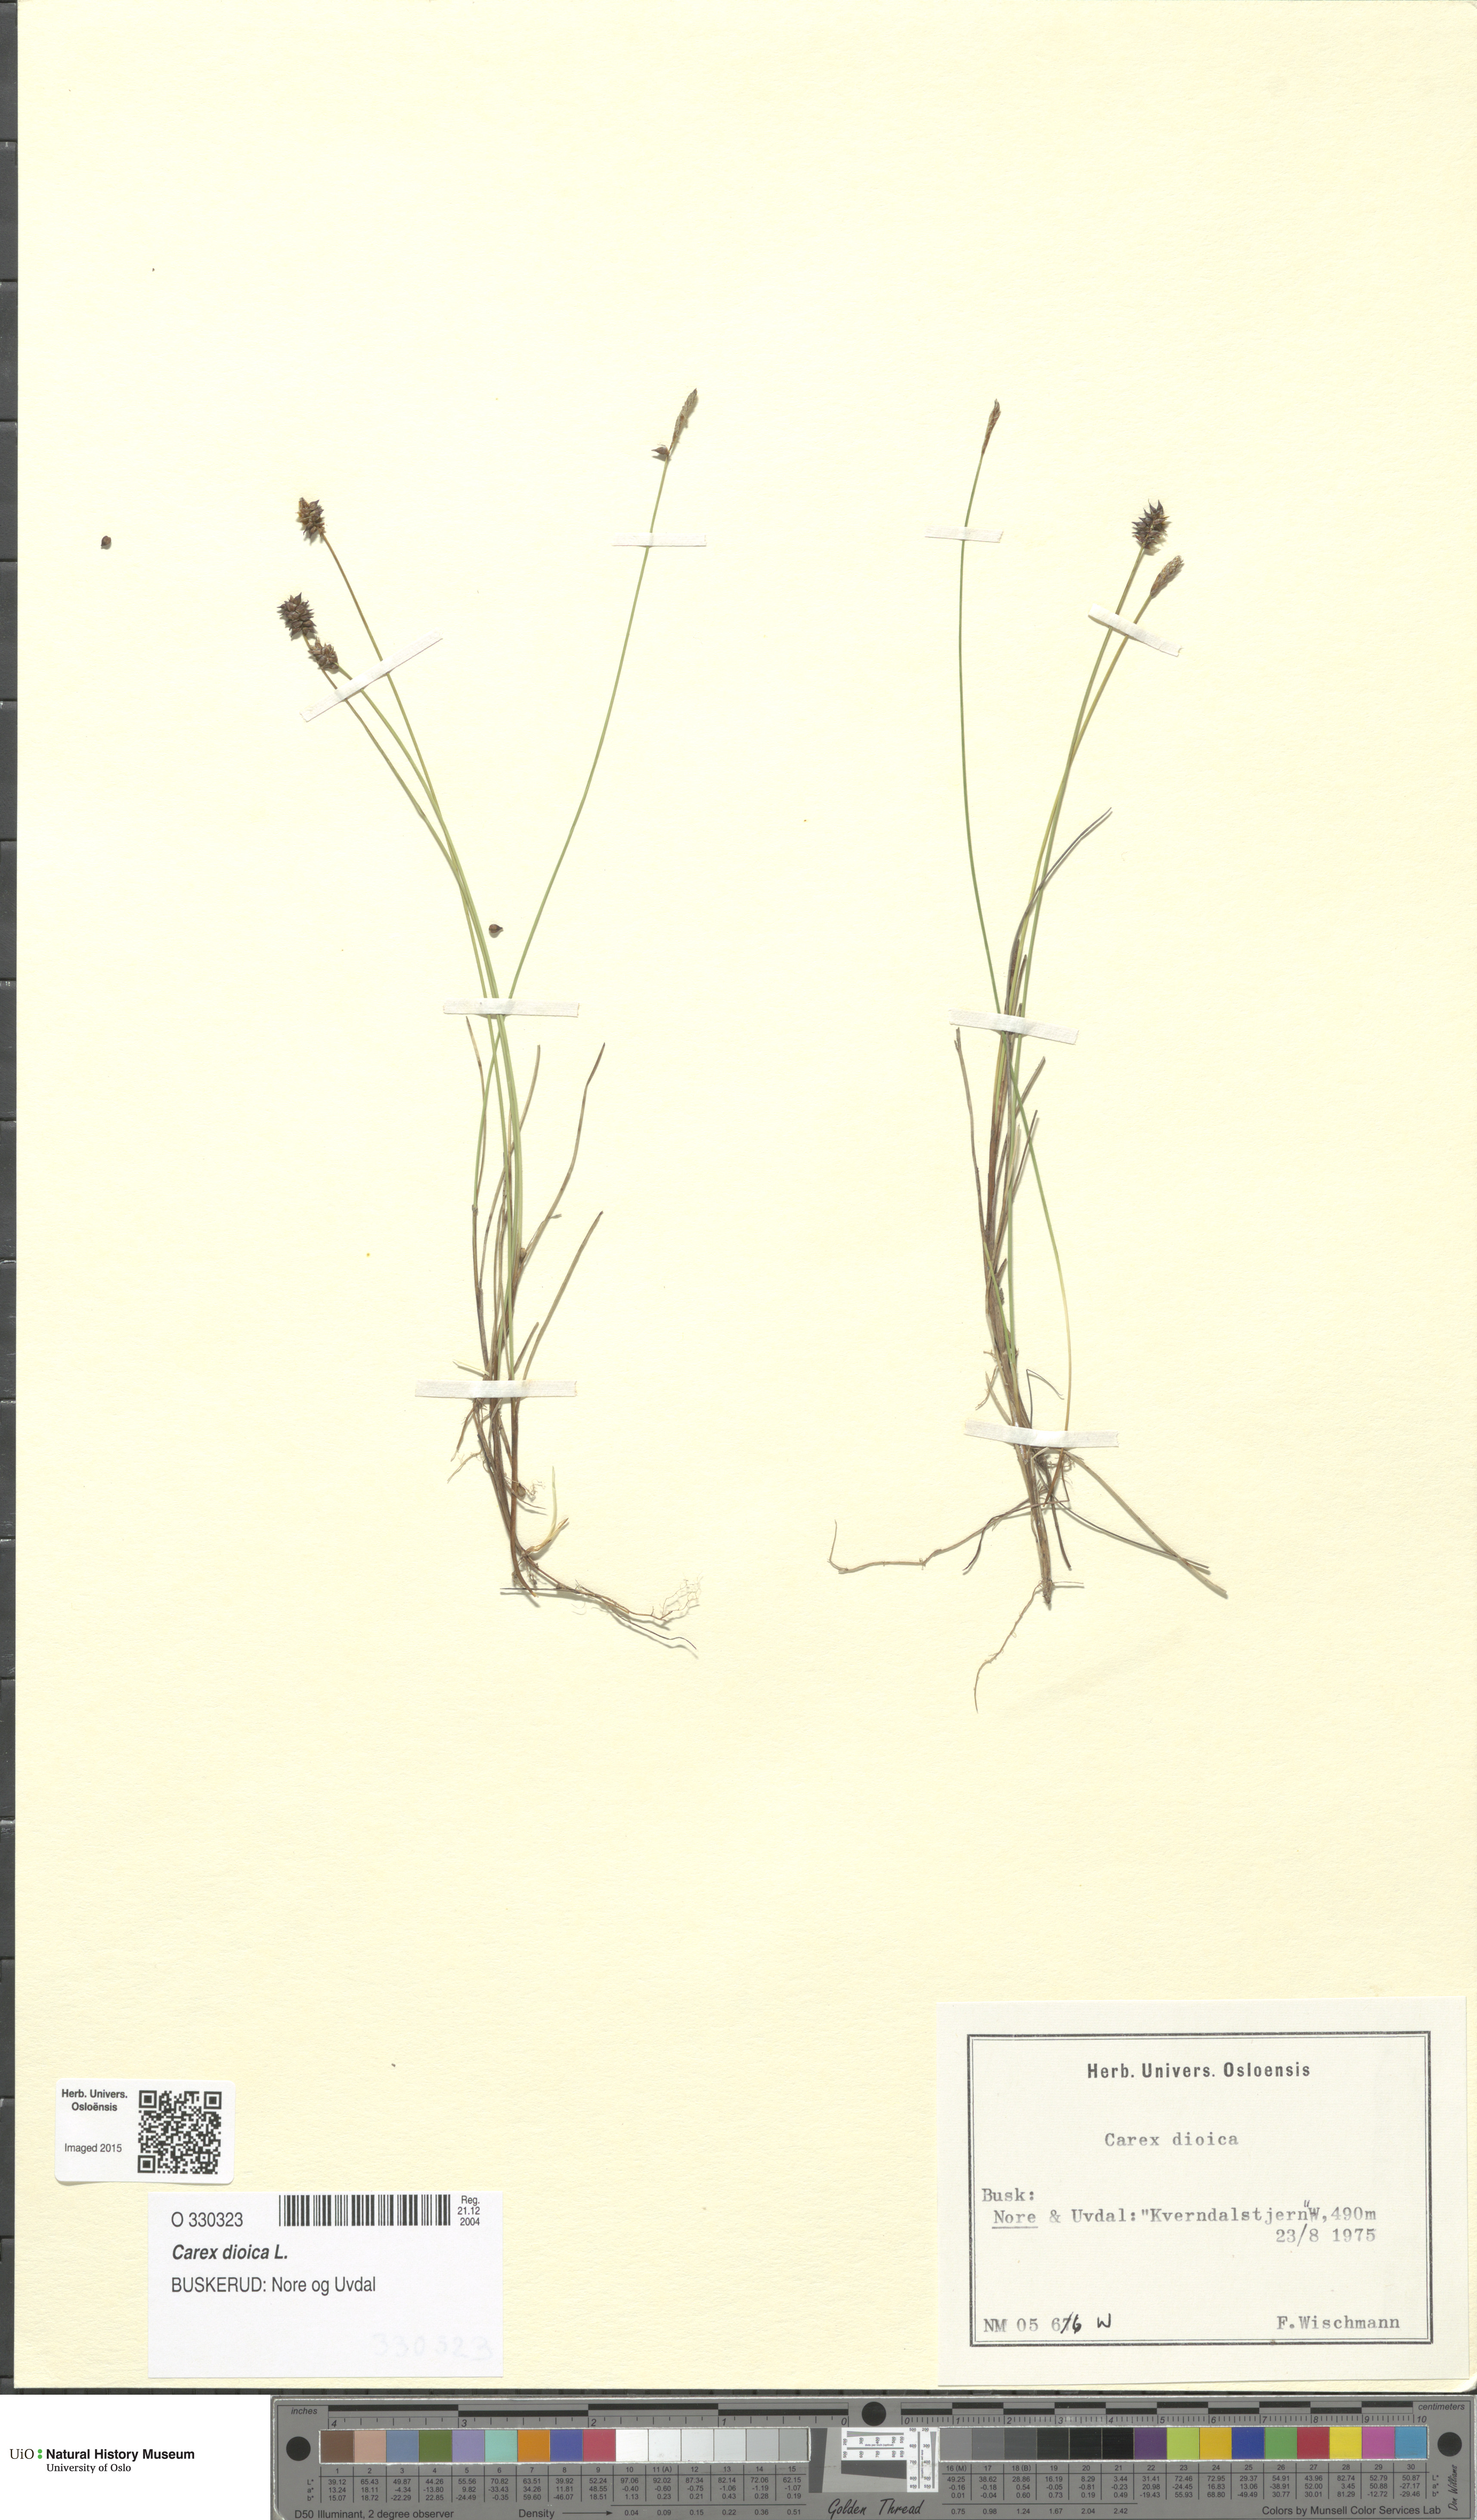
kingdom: Plantae
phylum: Tracheophyta
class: Liliopsida
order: Poales
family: Cyperaceae
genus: Carex
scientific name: Carex dioica
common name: Dioecious sedge
